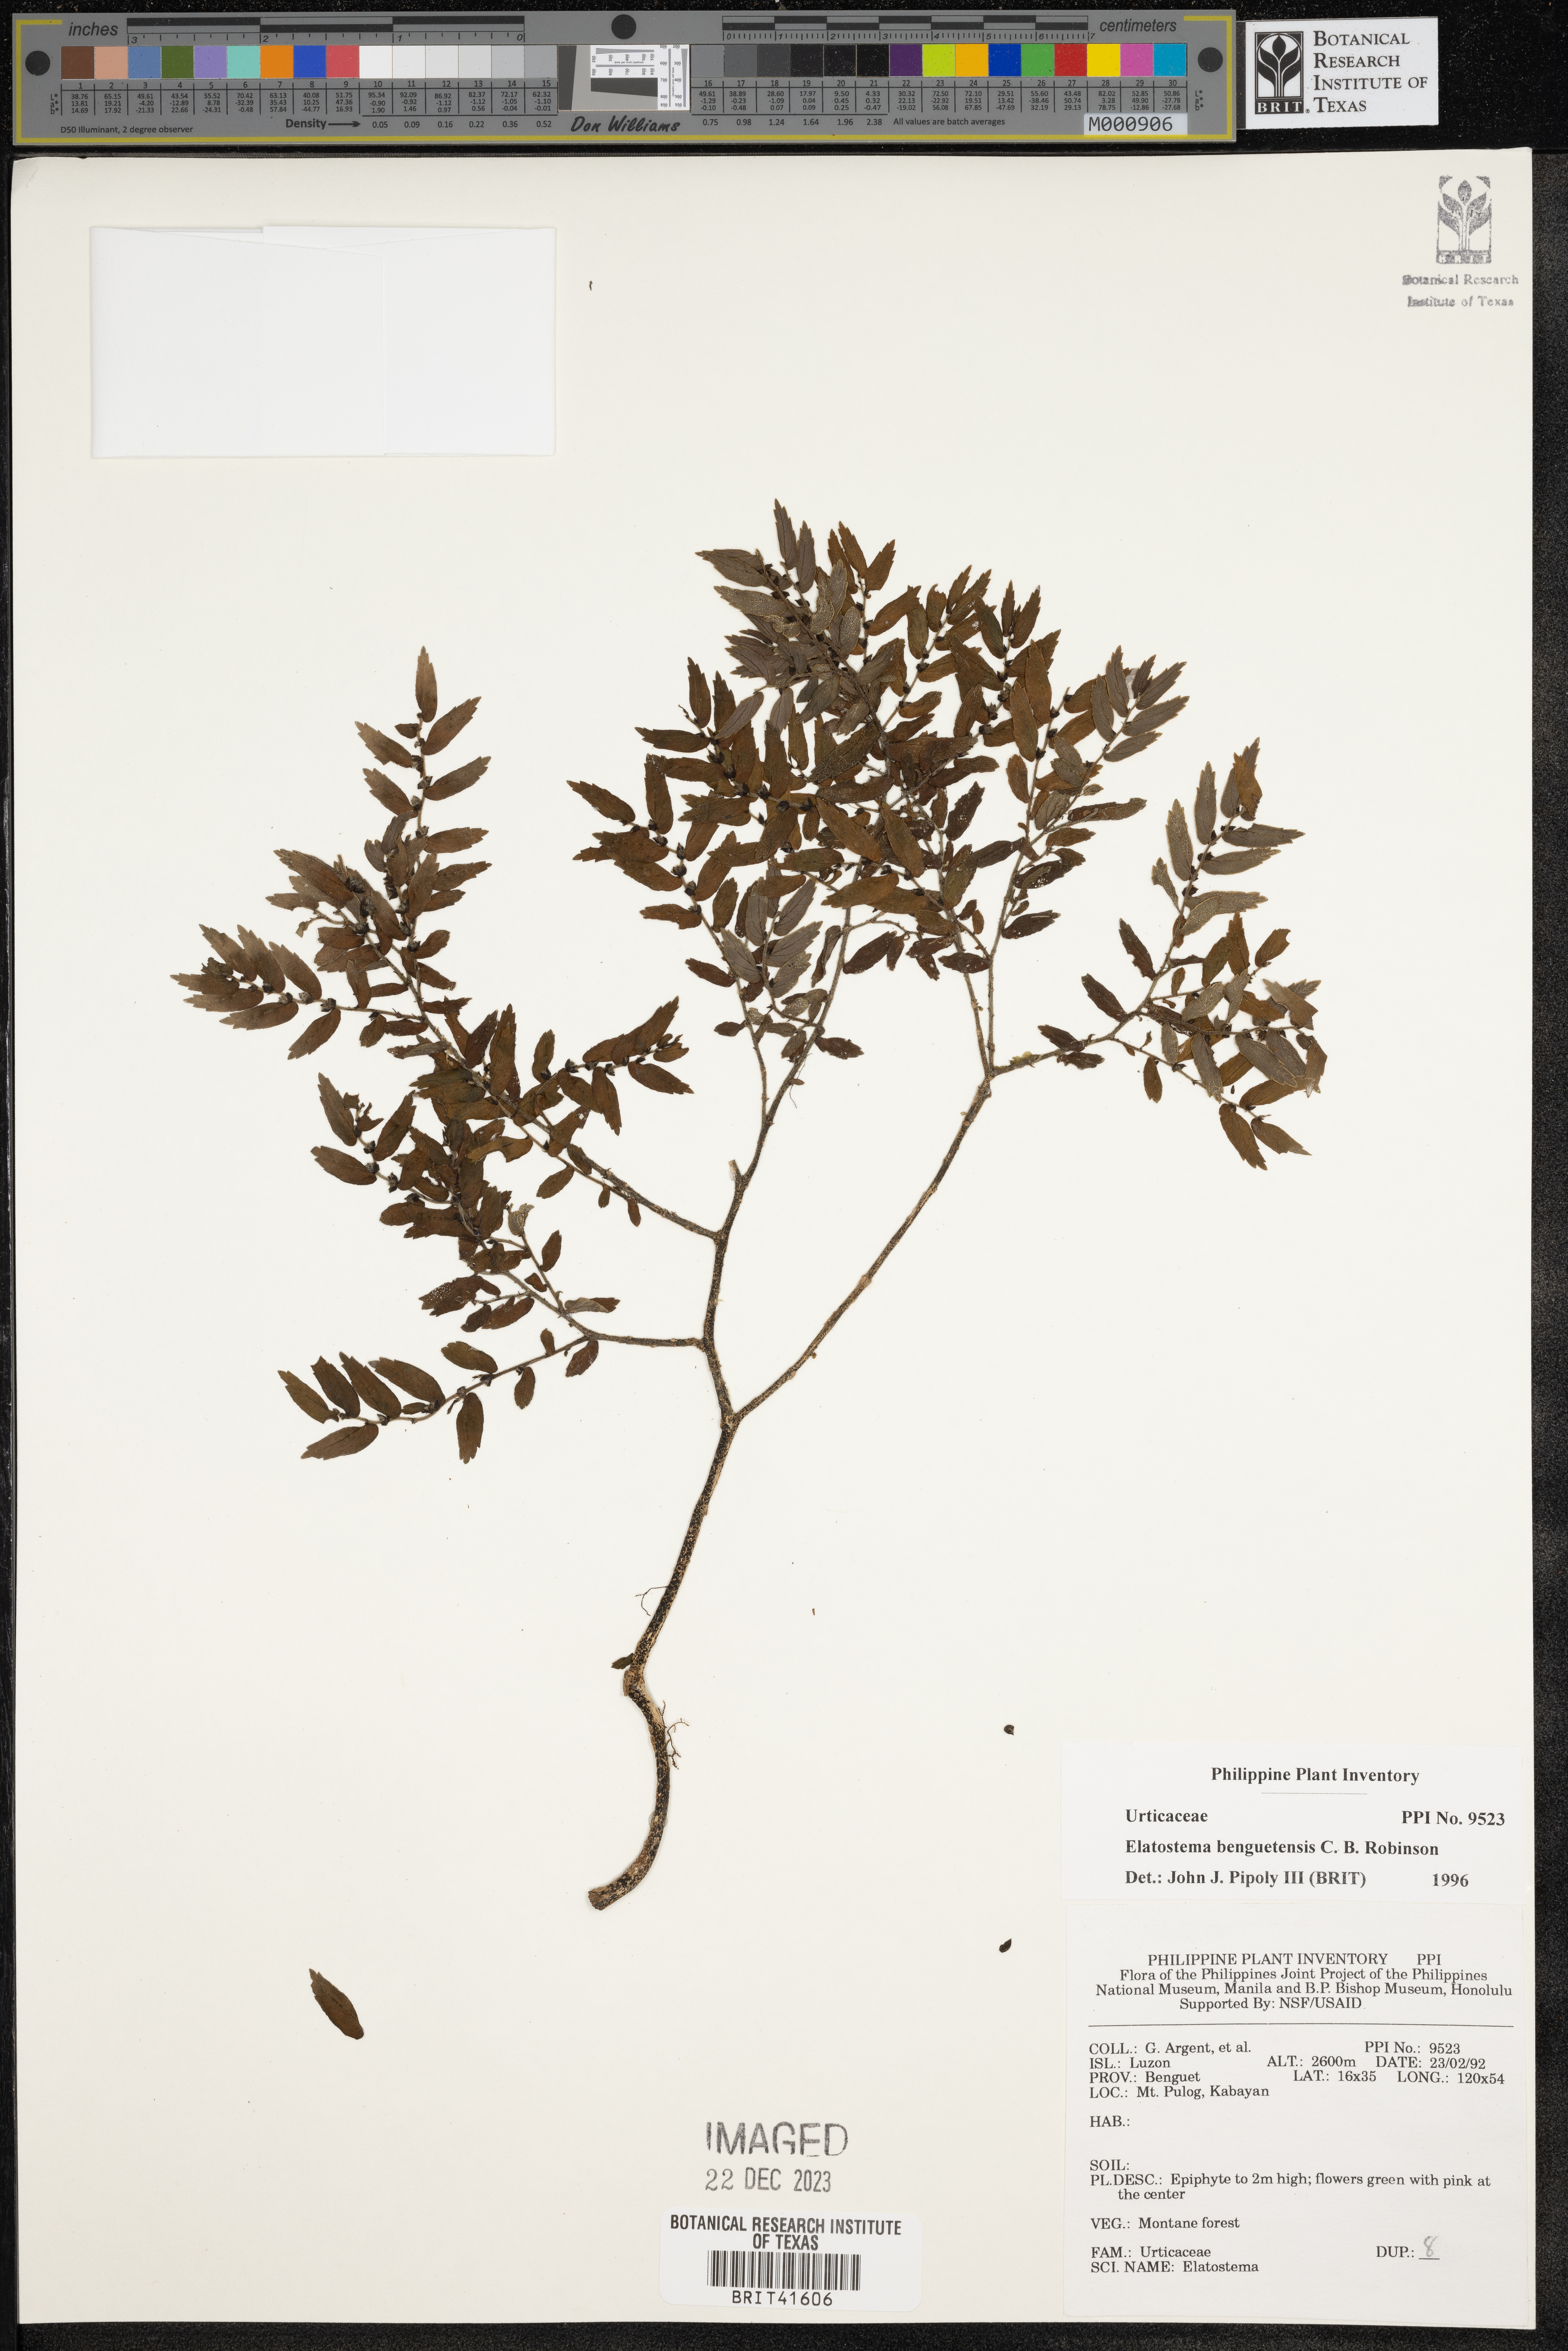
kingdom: Plantae
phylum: Tracheophyta
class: Magnoliopsida
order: Rosales
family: Urticaceae
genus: Elatostema
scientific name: Elatostema benguetense
